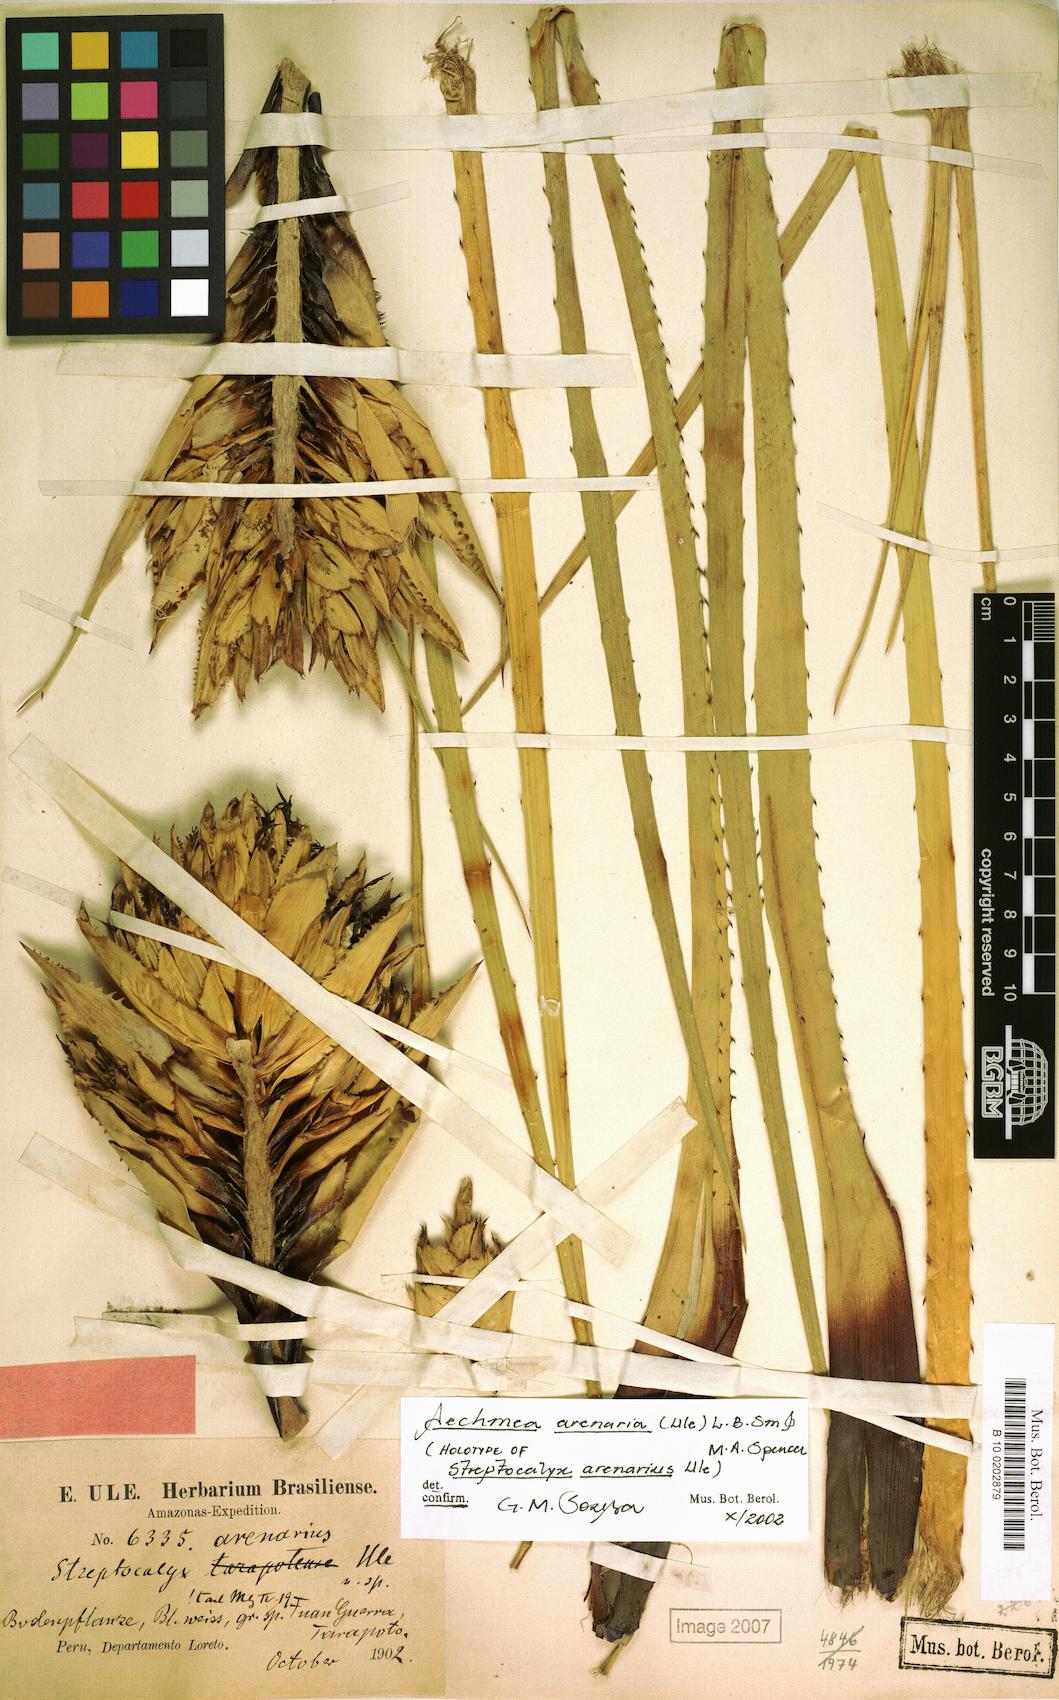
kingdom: Plantae
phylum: Tracheophyta
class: Liliopsida
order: Poales
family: Bromeliaceae
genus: Aechmea
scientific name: Aechmea arenaria
